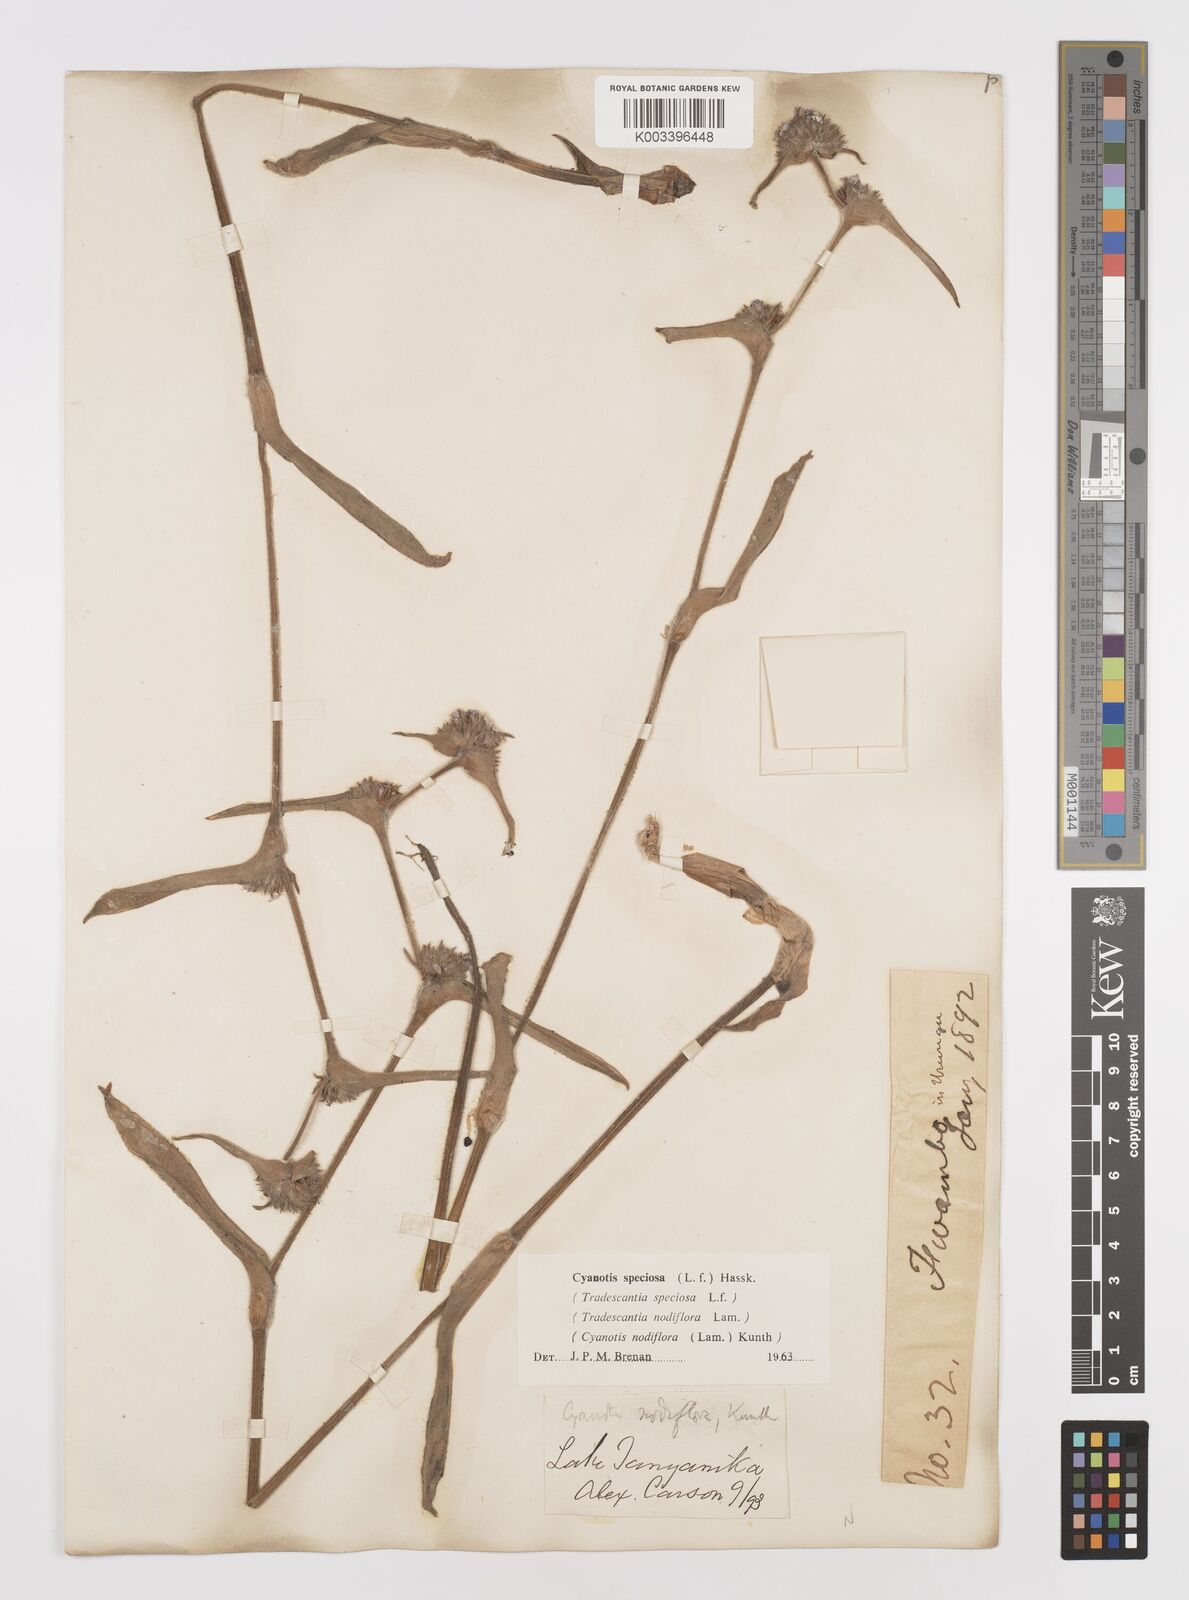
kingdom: Plantae
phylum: Tracheophyta
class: Liliopsida
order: Commelinales
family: Commelinaceae
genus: Cyanotis
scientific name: Cyanotis speciosa
